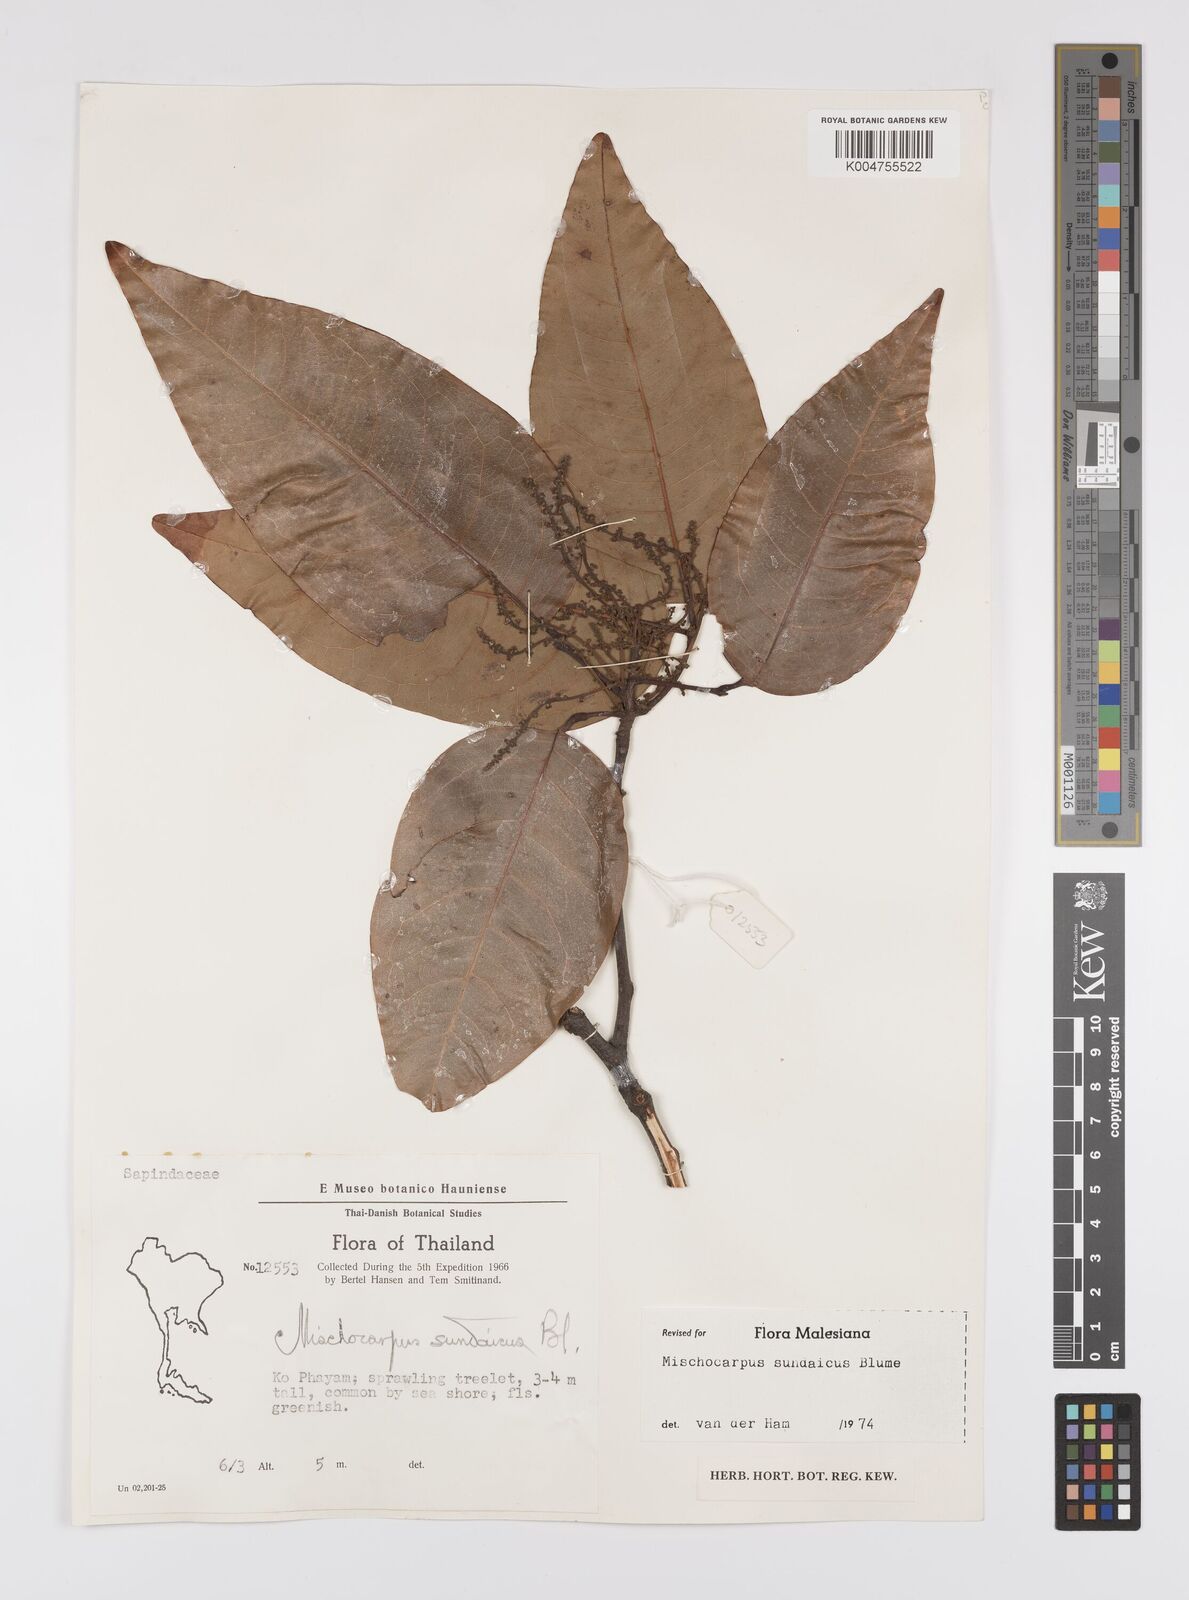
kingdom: Plantae
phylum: Tracheophyta
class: Magnoliopsida
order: Sapindales
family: Sapindaceae
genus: Mischocarpus
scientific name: Mischocarpus sundaicus
